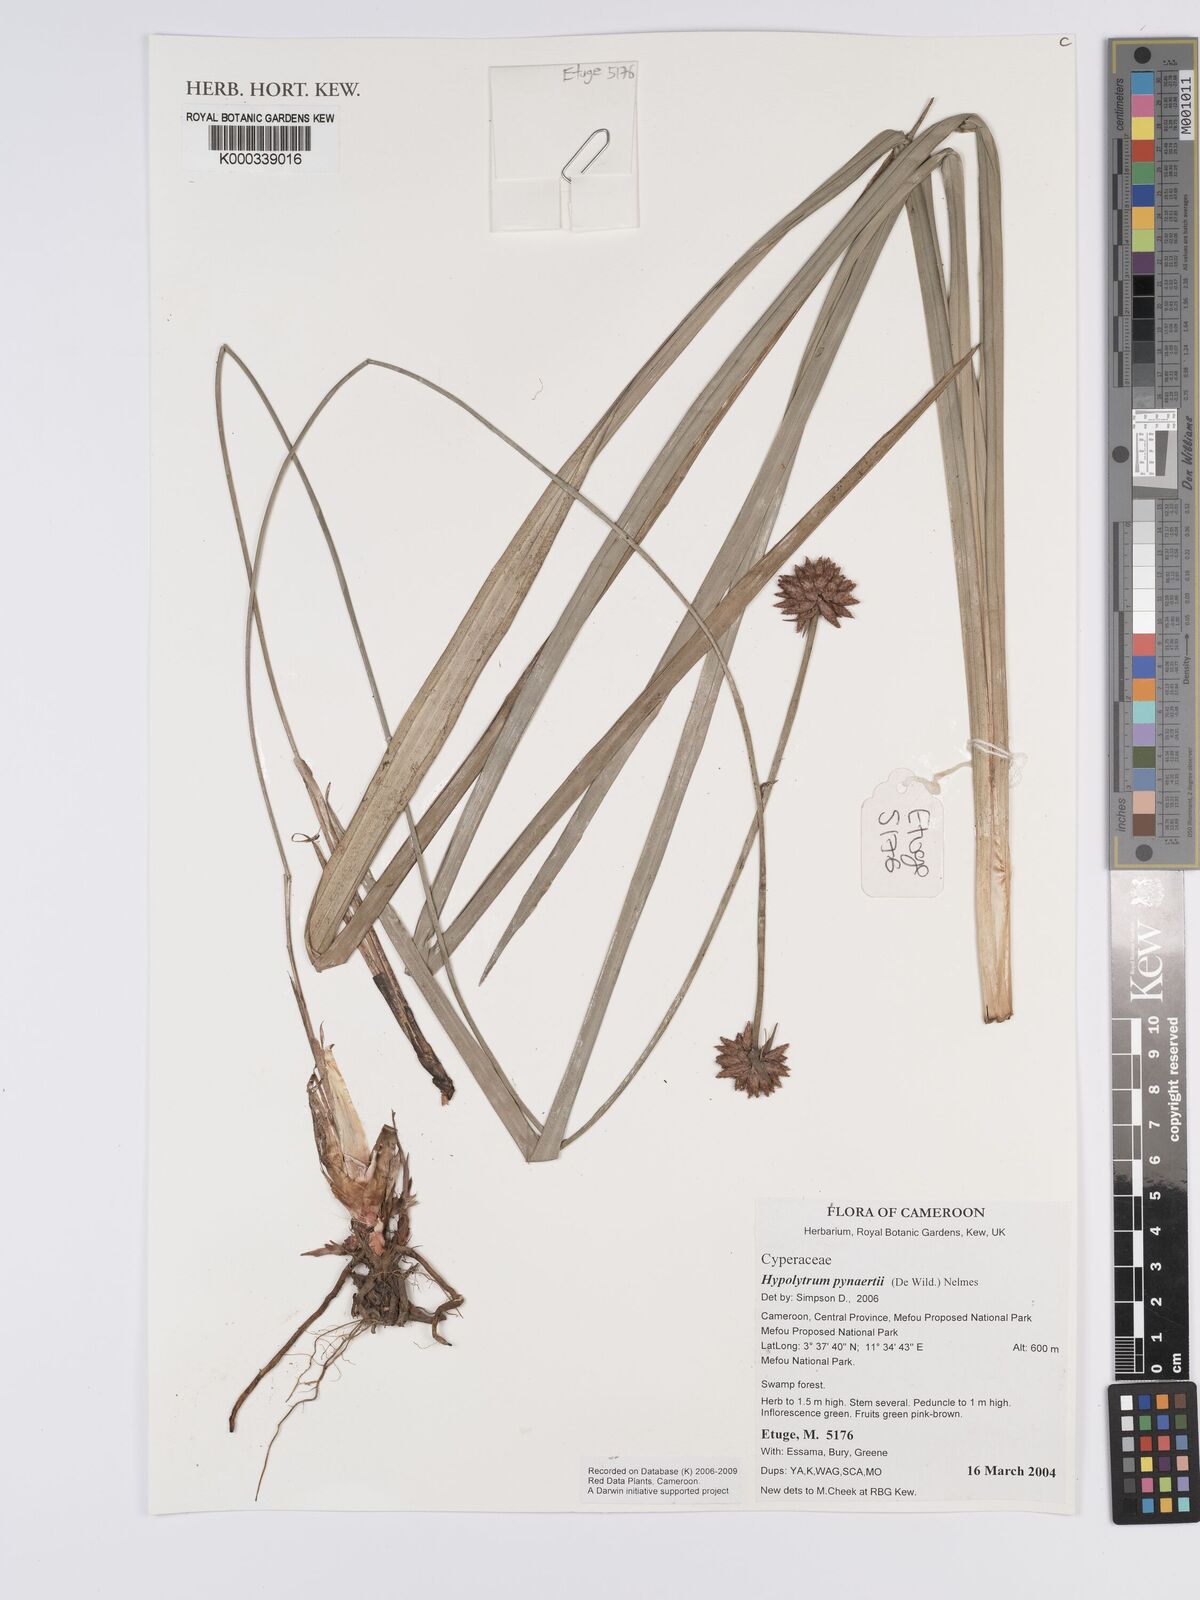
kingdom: Plantae
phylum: Tracheophyta
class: Liliopsida
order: Poales
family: Cyperaceae
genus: Hypolytrum
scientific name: Hypolytrum pynaertii
